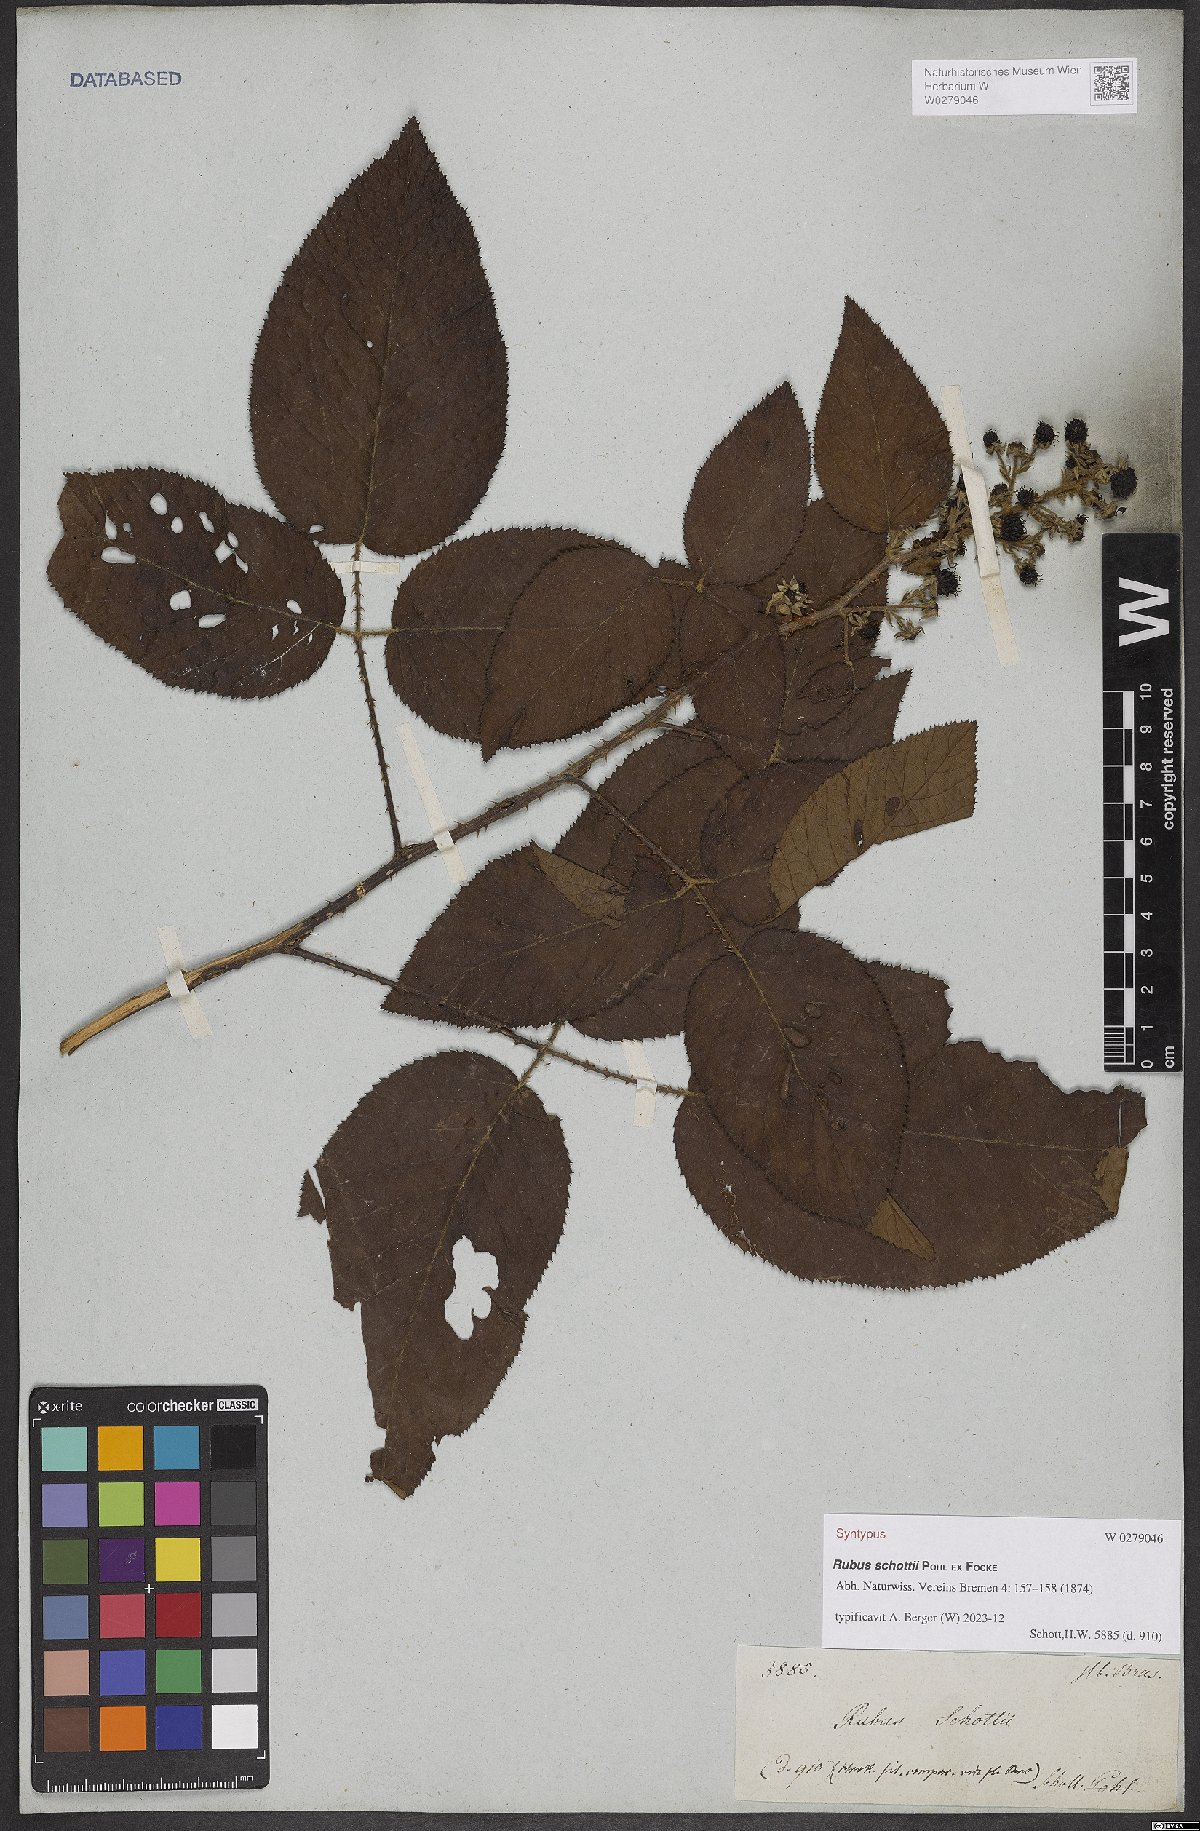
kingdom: Plantae
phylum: Tracheophyta
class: Magnoliopsida
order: Rosales
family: Rosaceae
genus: Rubus
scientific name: Rubus schottii
